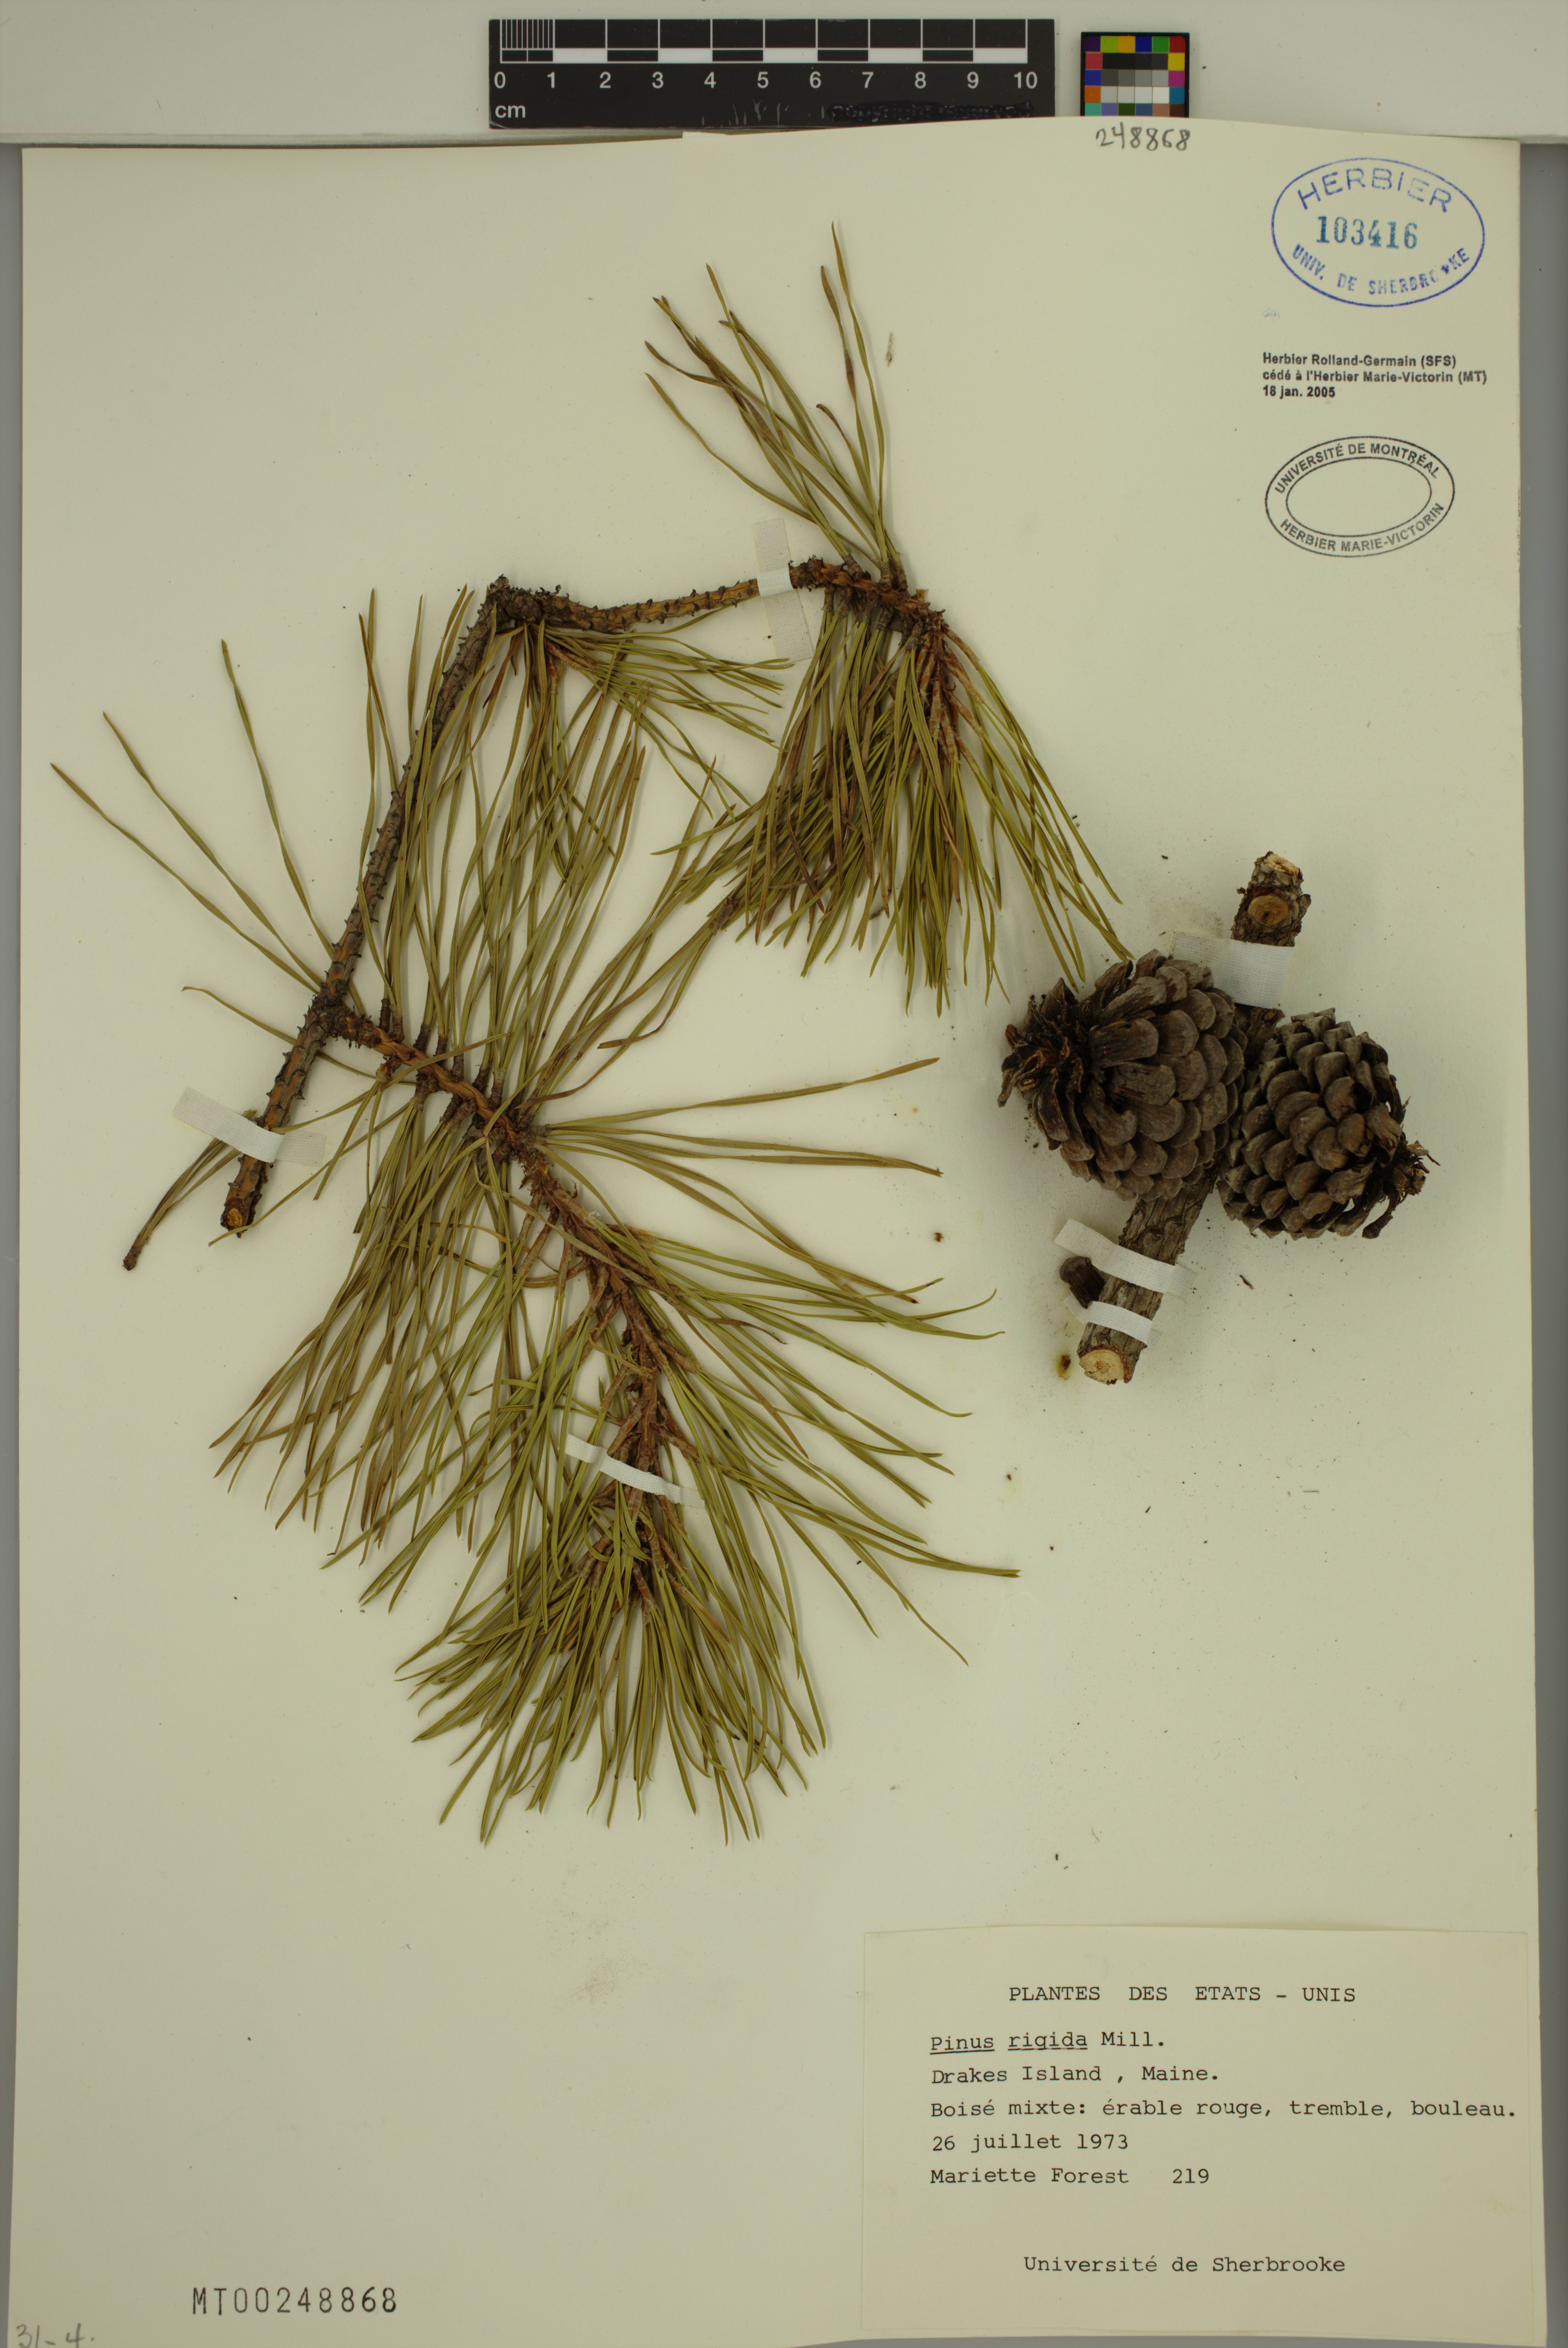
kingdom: Plantae
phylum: Tracheophyta
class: Pinopsida
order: Pinales
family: Pinaceae
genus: Pinus
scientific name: Pinus rigida
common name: Pitch pine
